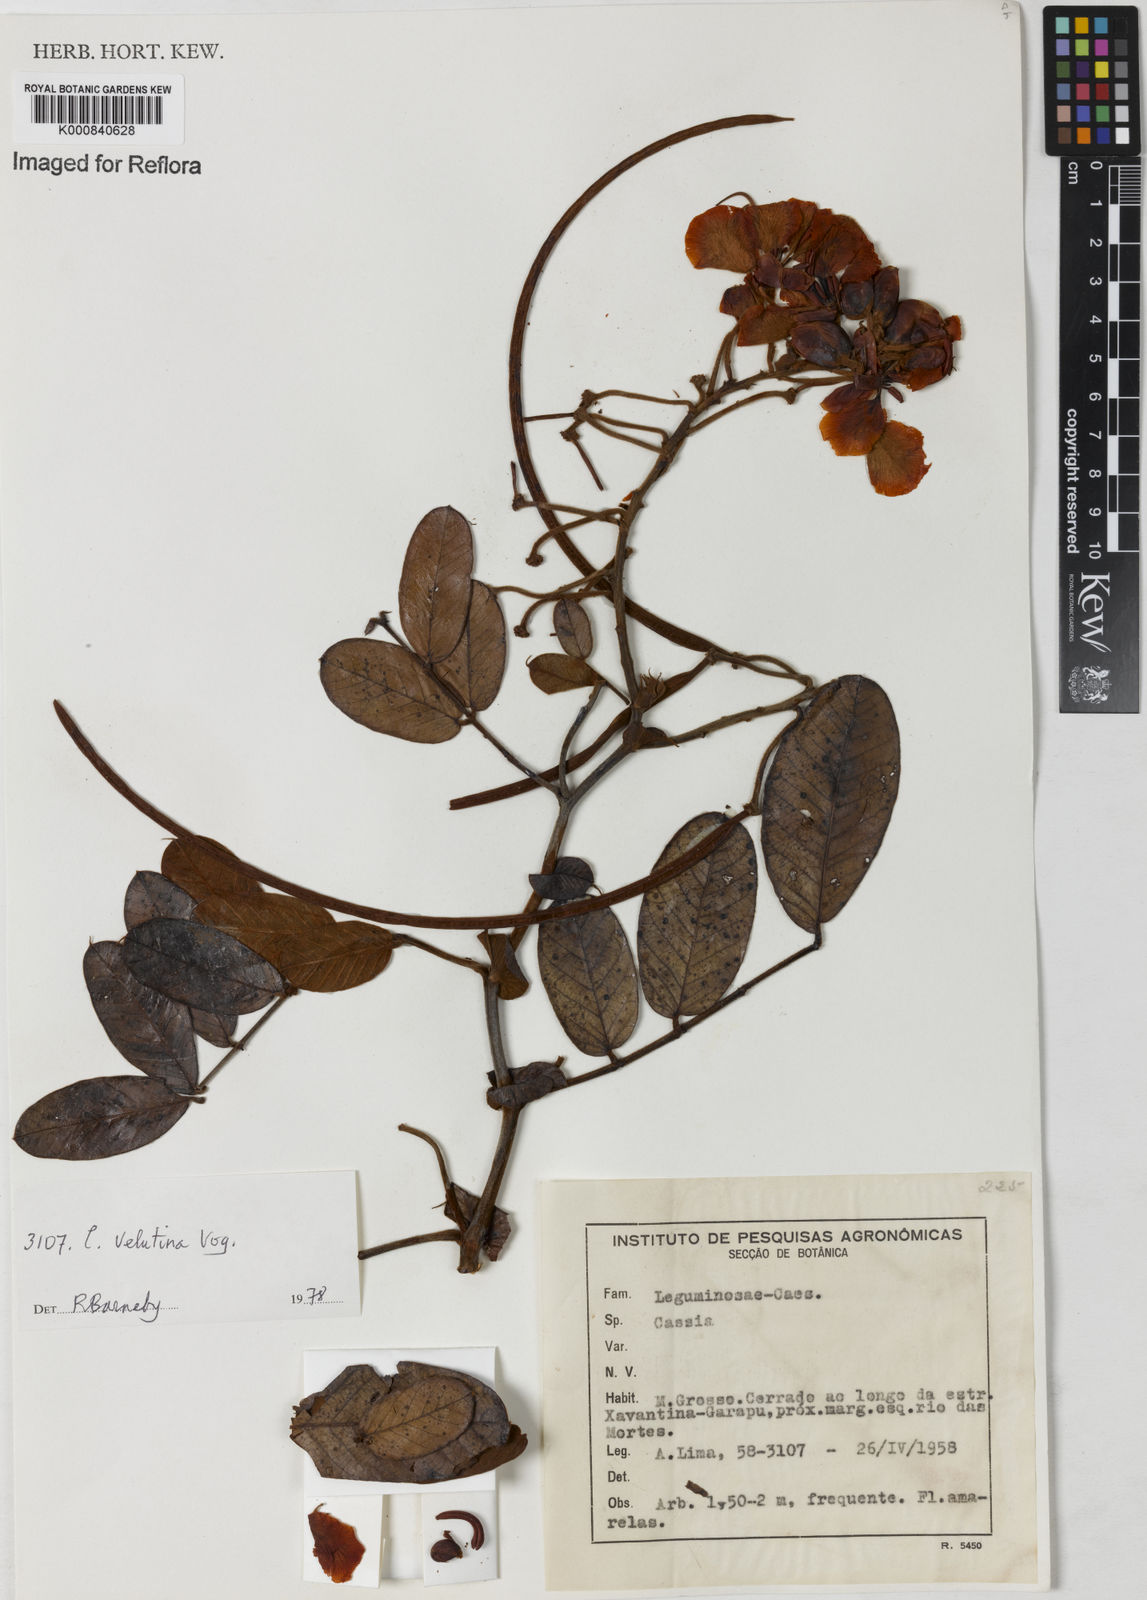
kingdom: Plantae
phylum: Tracheophyta
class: Magnoliopsida
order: Fabales
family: Fabaceae
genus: Senna
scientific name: Senna velutina
